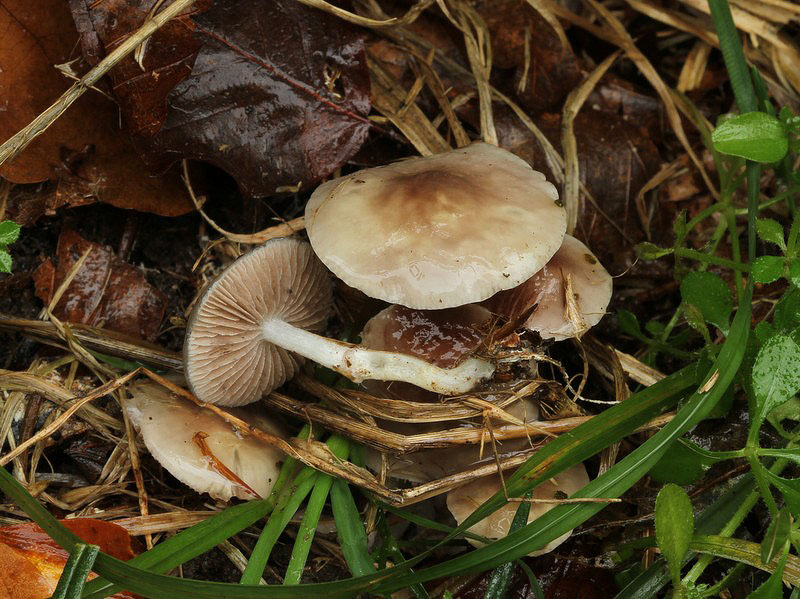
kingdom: Fungi
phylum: Basidiomycota
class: Agaricomycetes
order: Agaricales
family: Strophariaceae
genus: Stropharia
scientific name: Stropharia inuncta
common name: lillabrun bredblad
